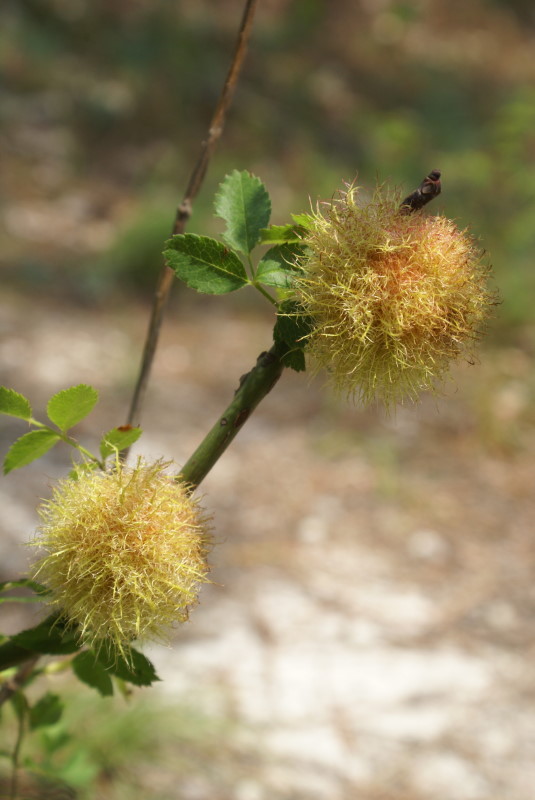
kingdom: Plantae
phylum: Tracheophyta
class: Magnoliopsida
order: Rosales
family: Rosaceae
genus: Rosa
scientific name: Rosa
